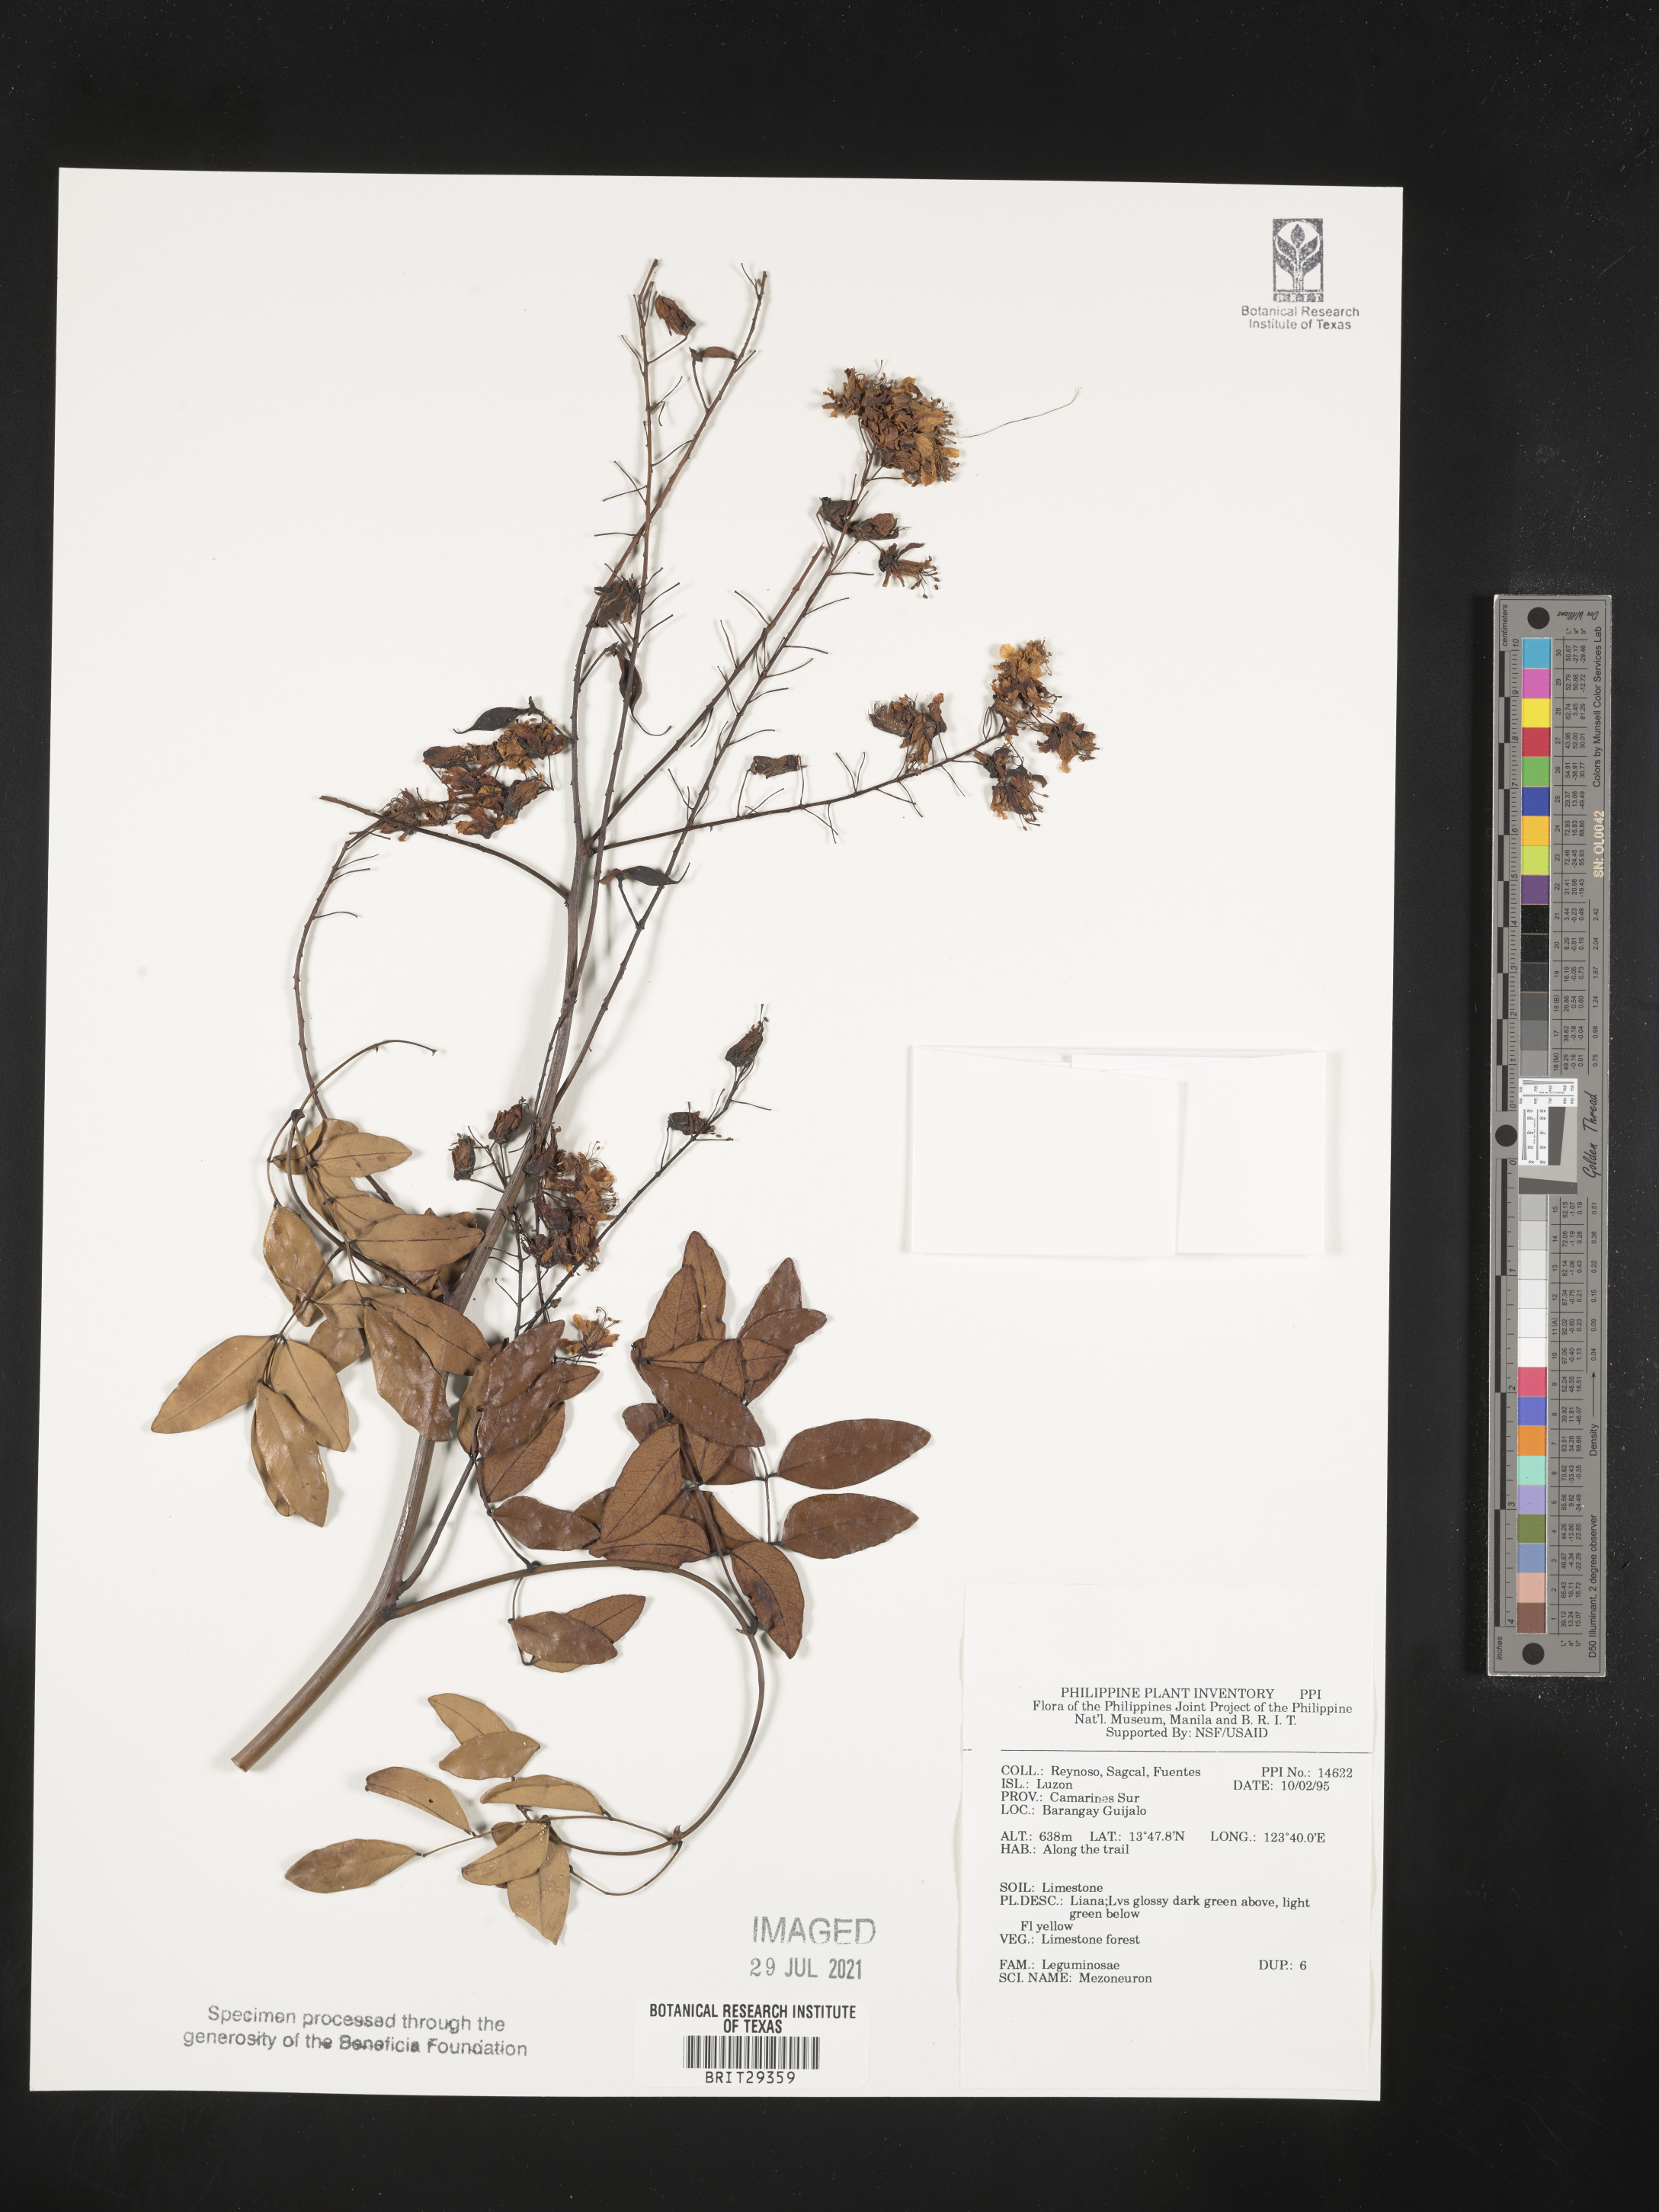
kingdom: Plantae
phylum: Tracheophyta
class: Magnoliopsida
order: Fabales
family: Fabaceae
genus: Mezoneuron
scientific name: Mezoneuron
